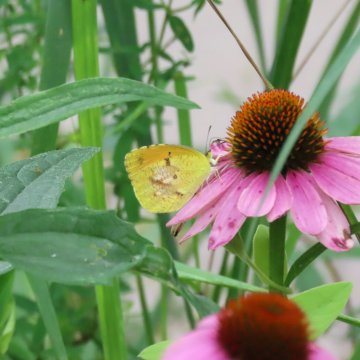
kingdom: Animalia
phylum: Arthropoda
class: Insecta
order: Lepidoptera
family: Pieridae
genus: Abaeis
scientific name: Abaeis nicippe
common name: Sleepy Orange
